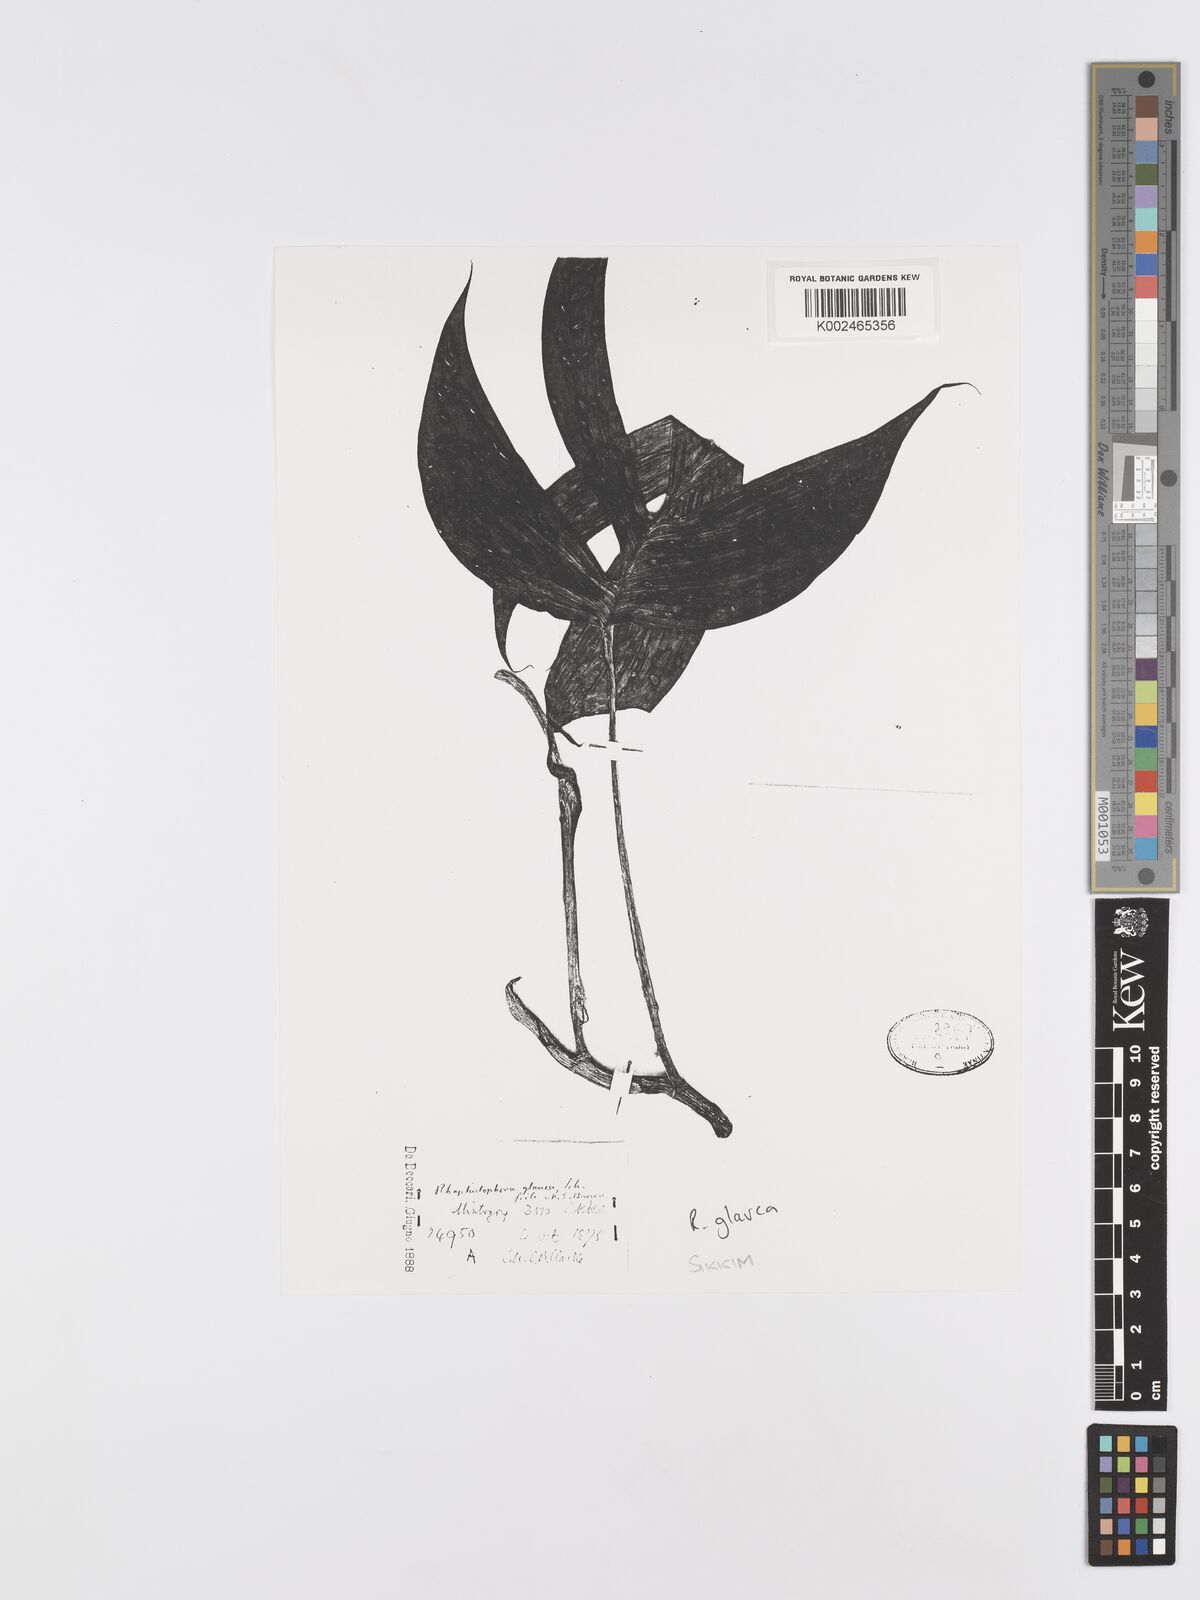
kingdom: Plantae
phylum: Tracheophyta
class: Liliopsida
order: Alismatales
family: Araceae
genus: Rhaphidophora
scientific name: Rhaphidophora glauca
